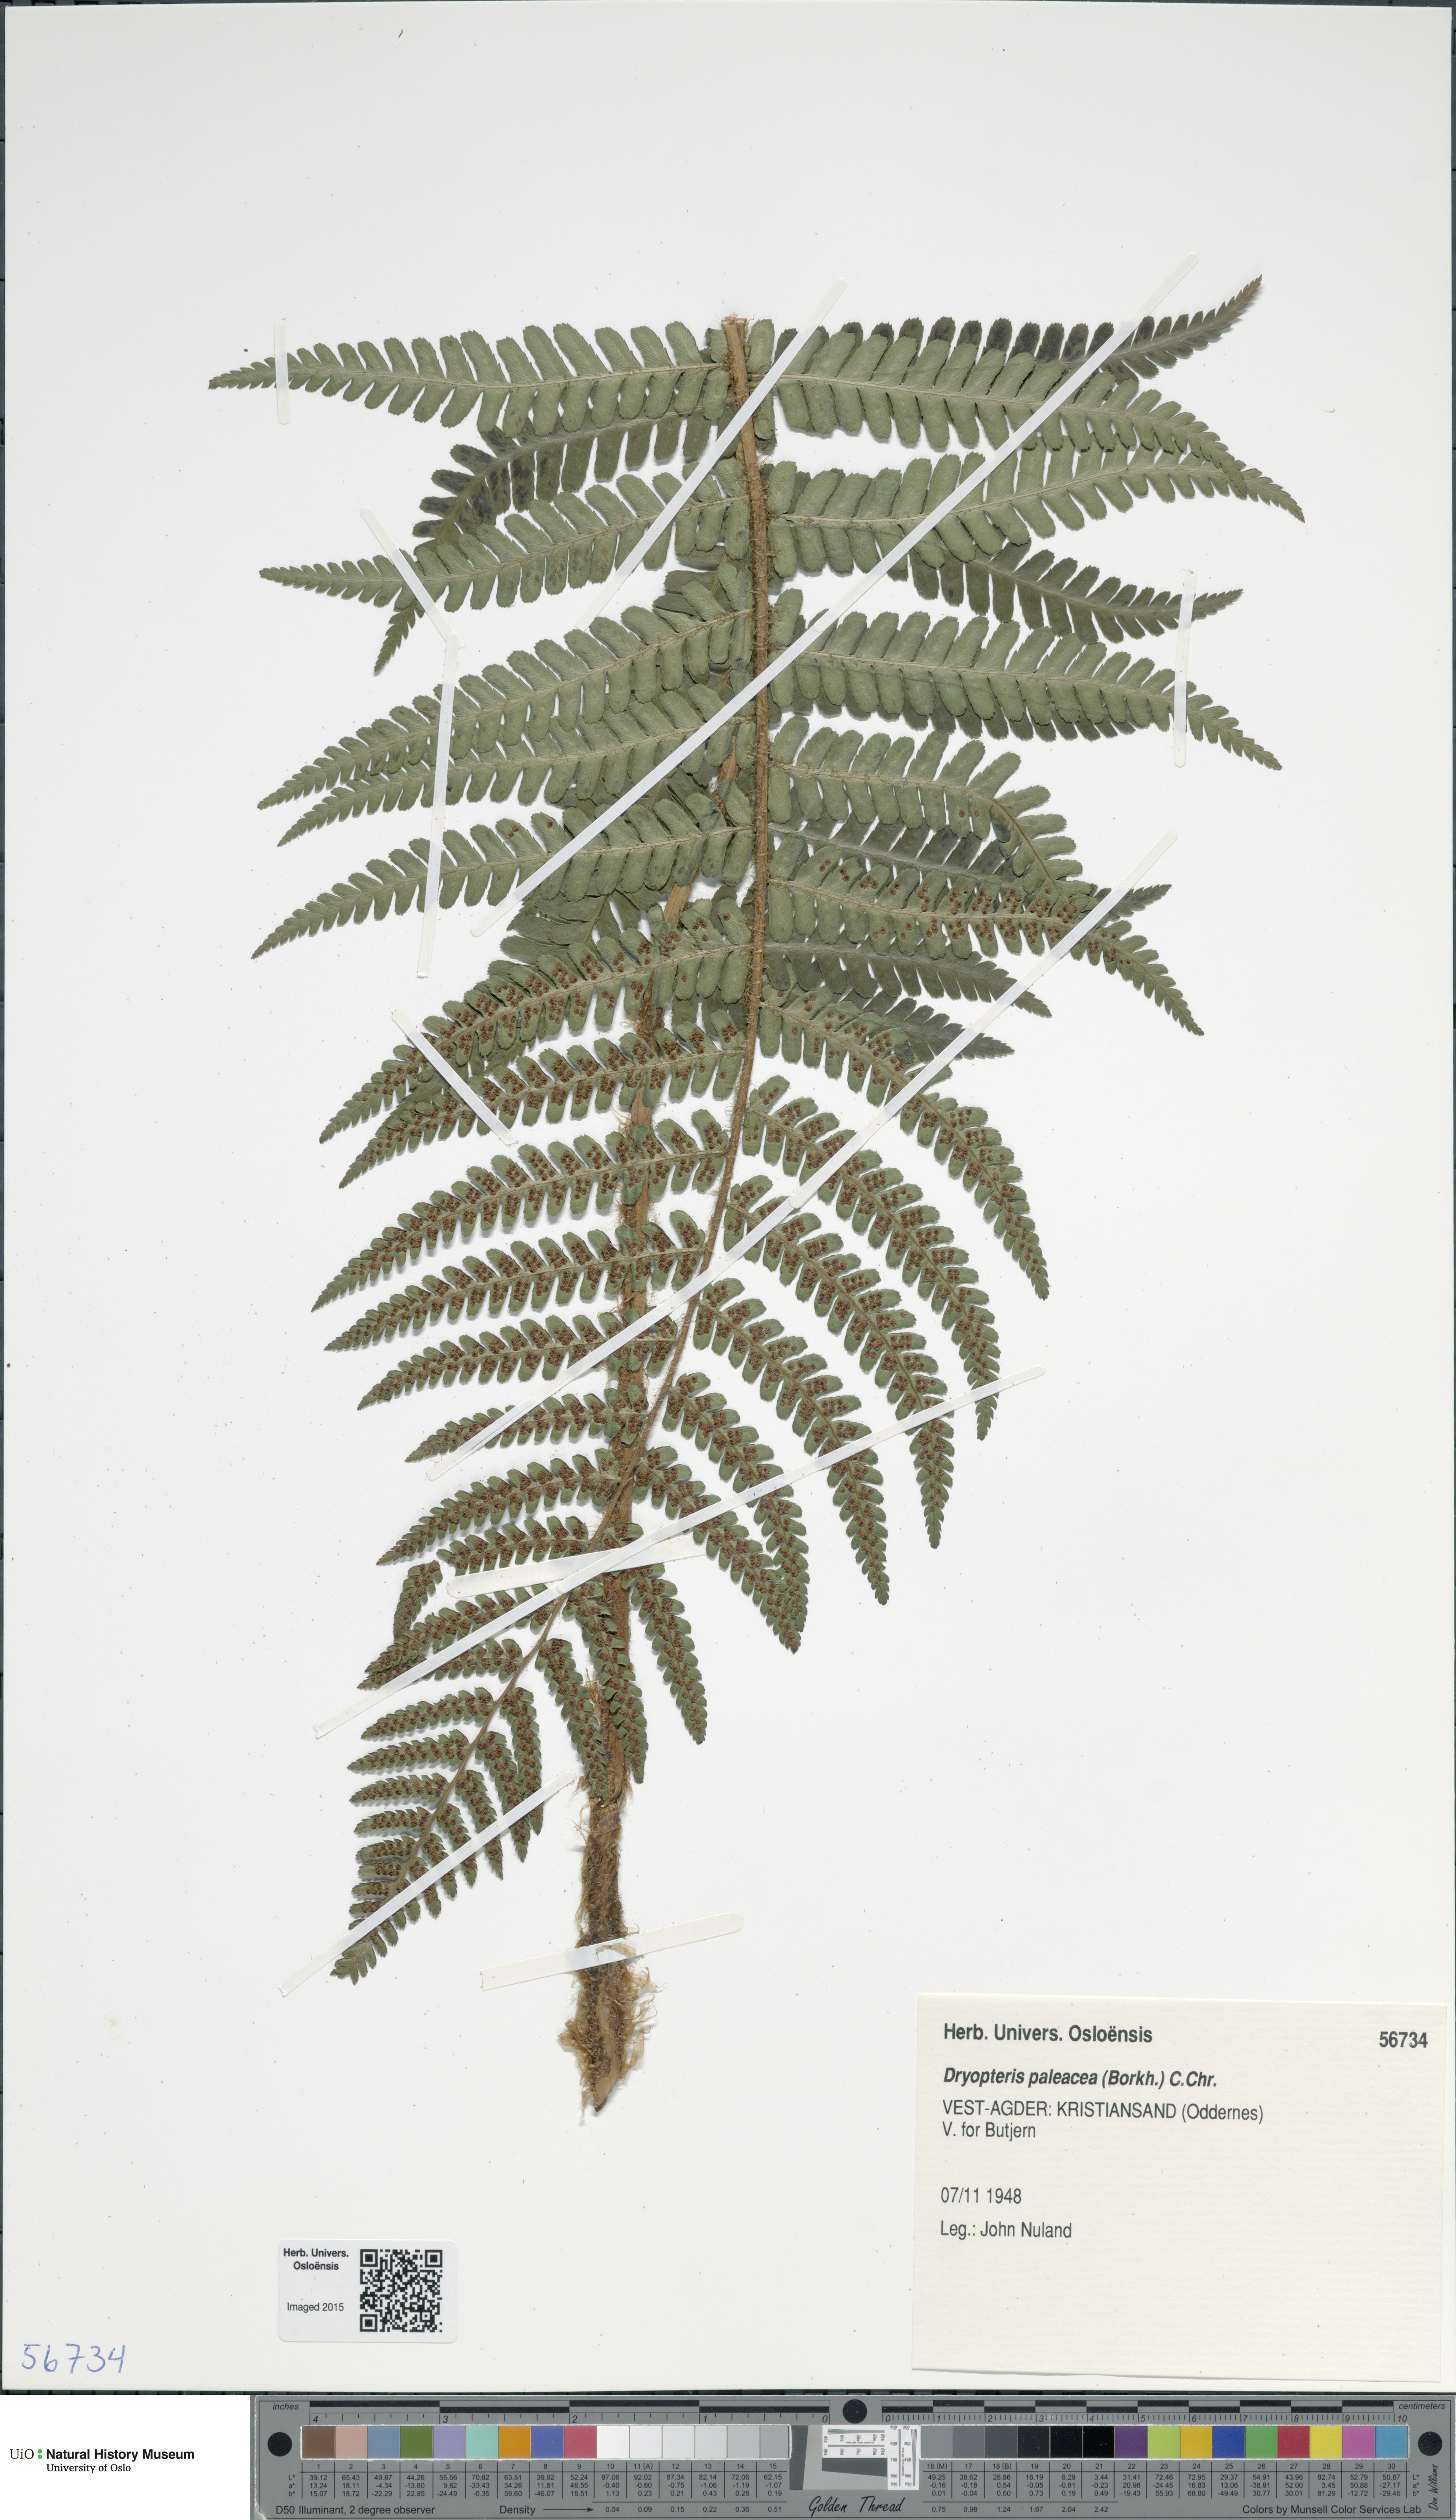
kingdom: Plantae
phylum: Tracheophyta
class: Polypodiopsida
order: Polypodiales
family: Dryopteridaceae
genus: Dryopteris
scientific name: Dryopteris wallichiana
